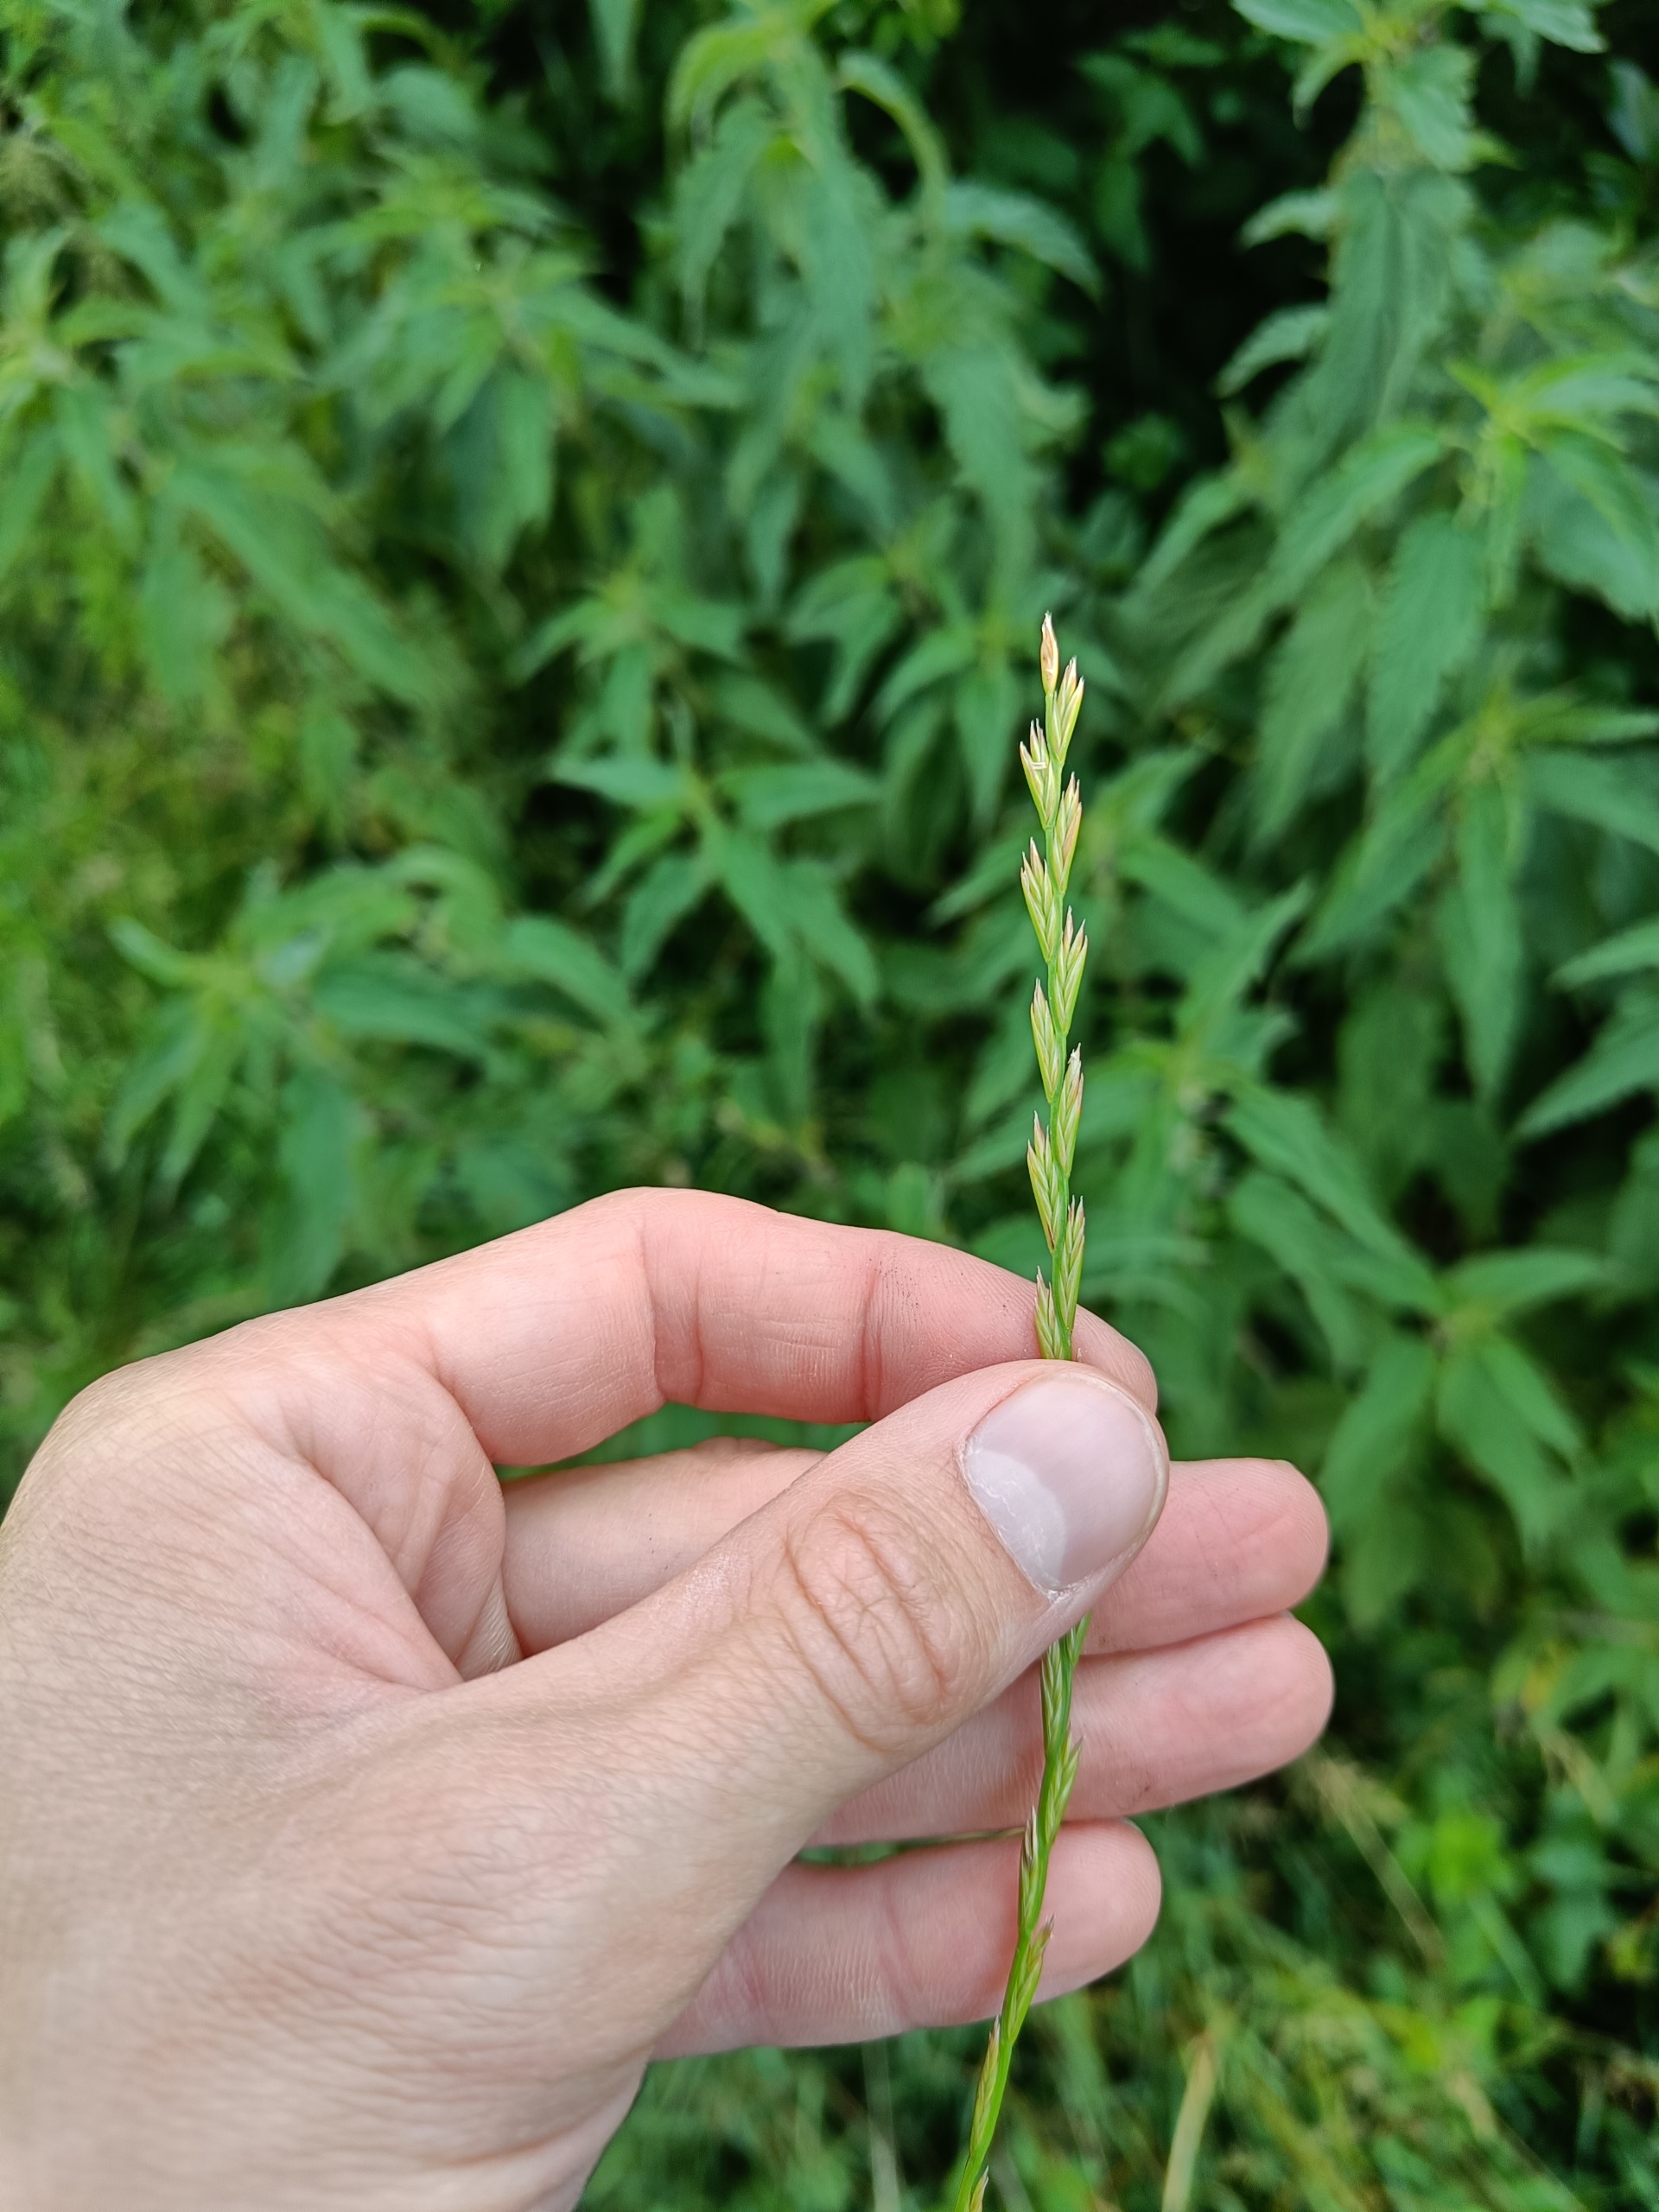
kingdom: Plantae
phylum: Tracheophyta
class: Liliopsida
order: Poales
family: Poaceae
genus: Lolium
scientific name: Lolium perenne
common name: Almindelig rajgræs
